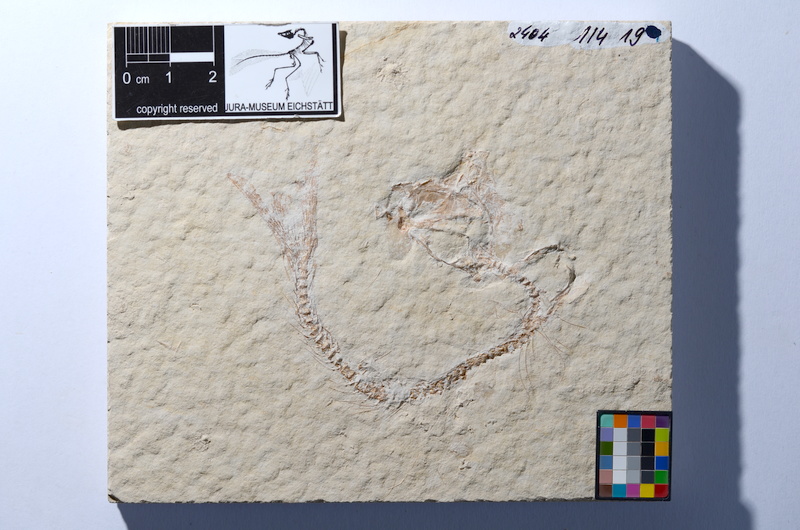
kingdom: Animalia
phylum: Chordata
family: Ascalaboidae
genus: Tharsis
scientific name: Tharsis dubius
